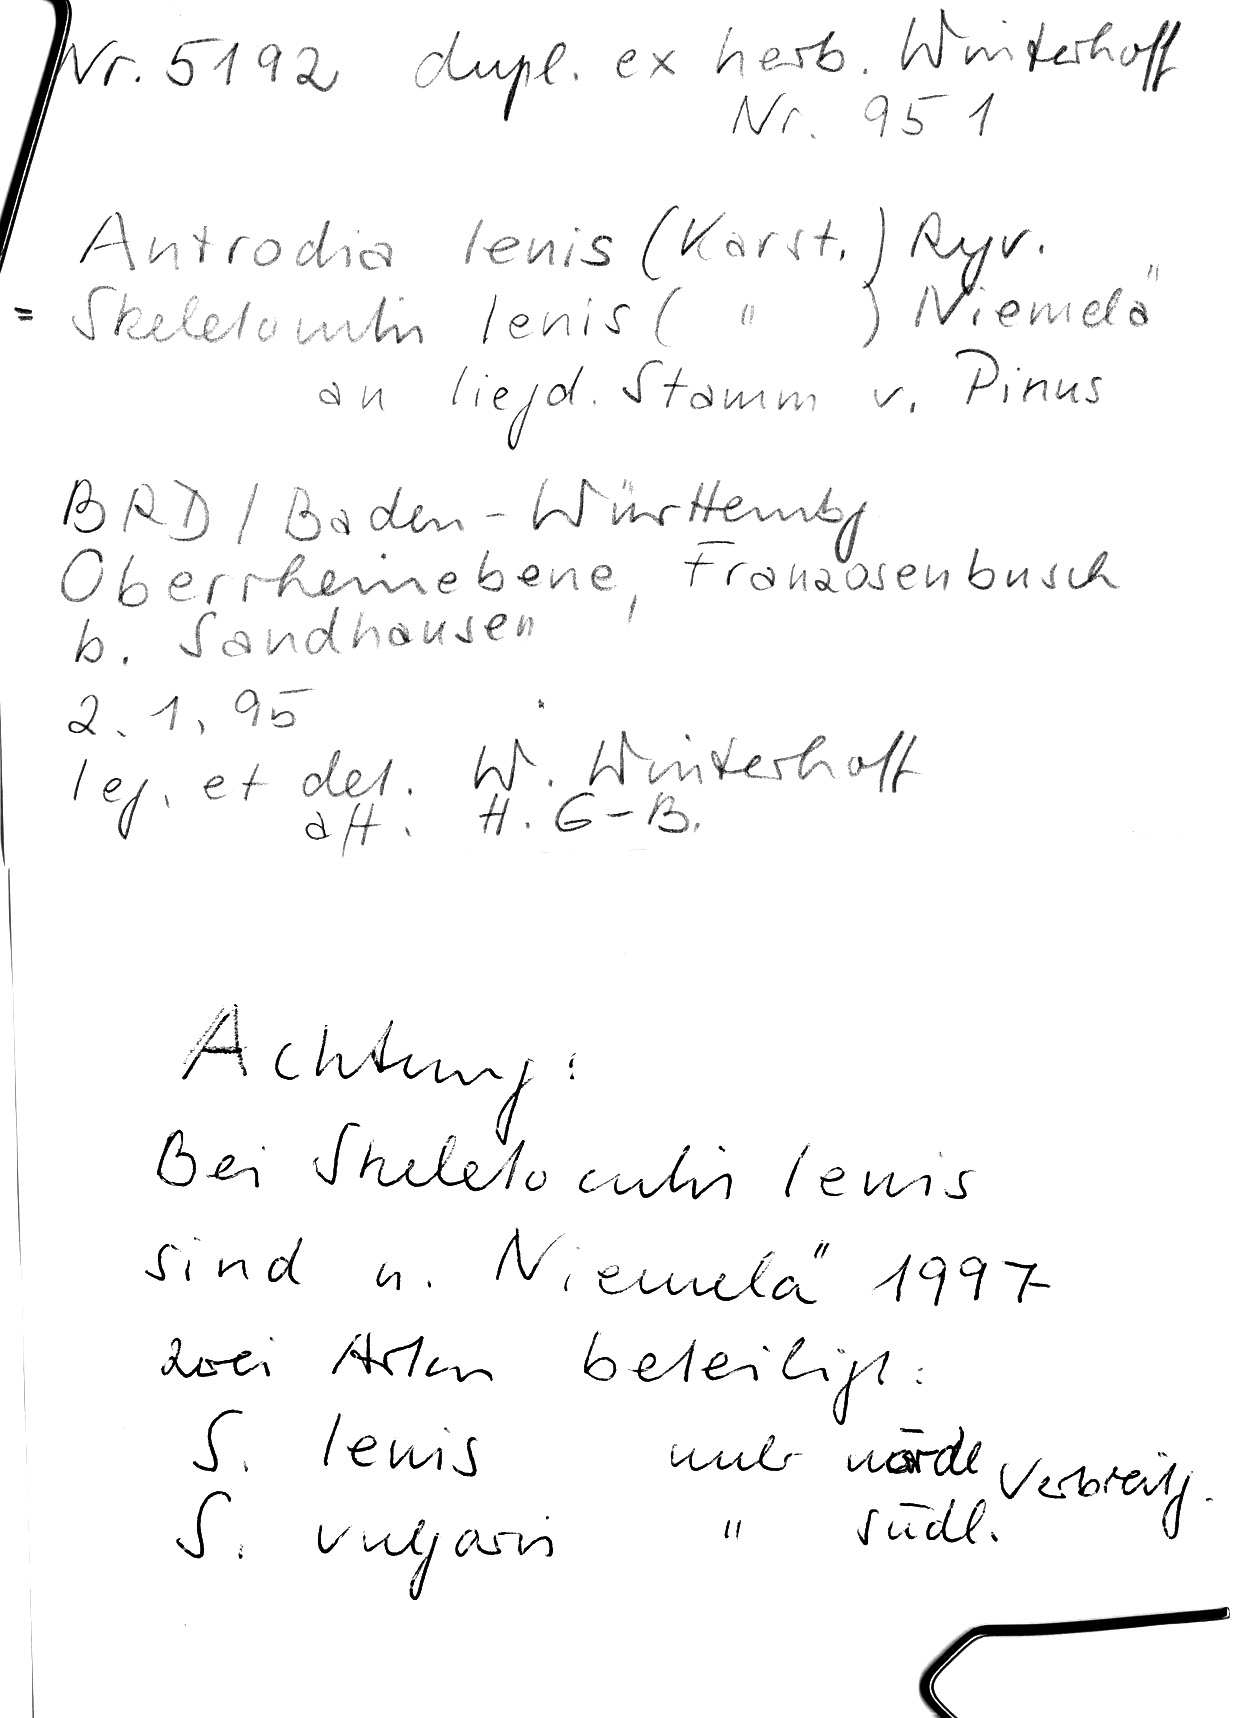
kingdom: Plantae
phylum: Tracheophyta
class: Pinopsida
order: Pinales
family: Pinaceae
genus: Pinus
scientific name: Pinus
